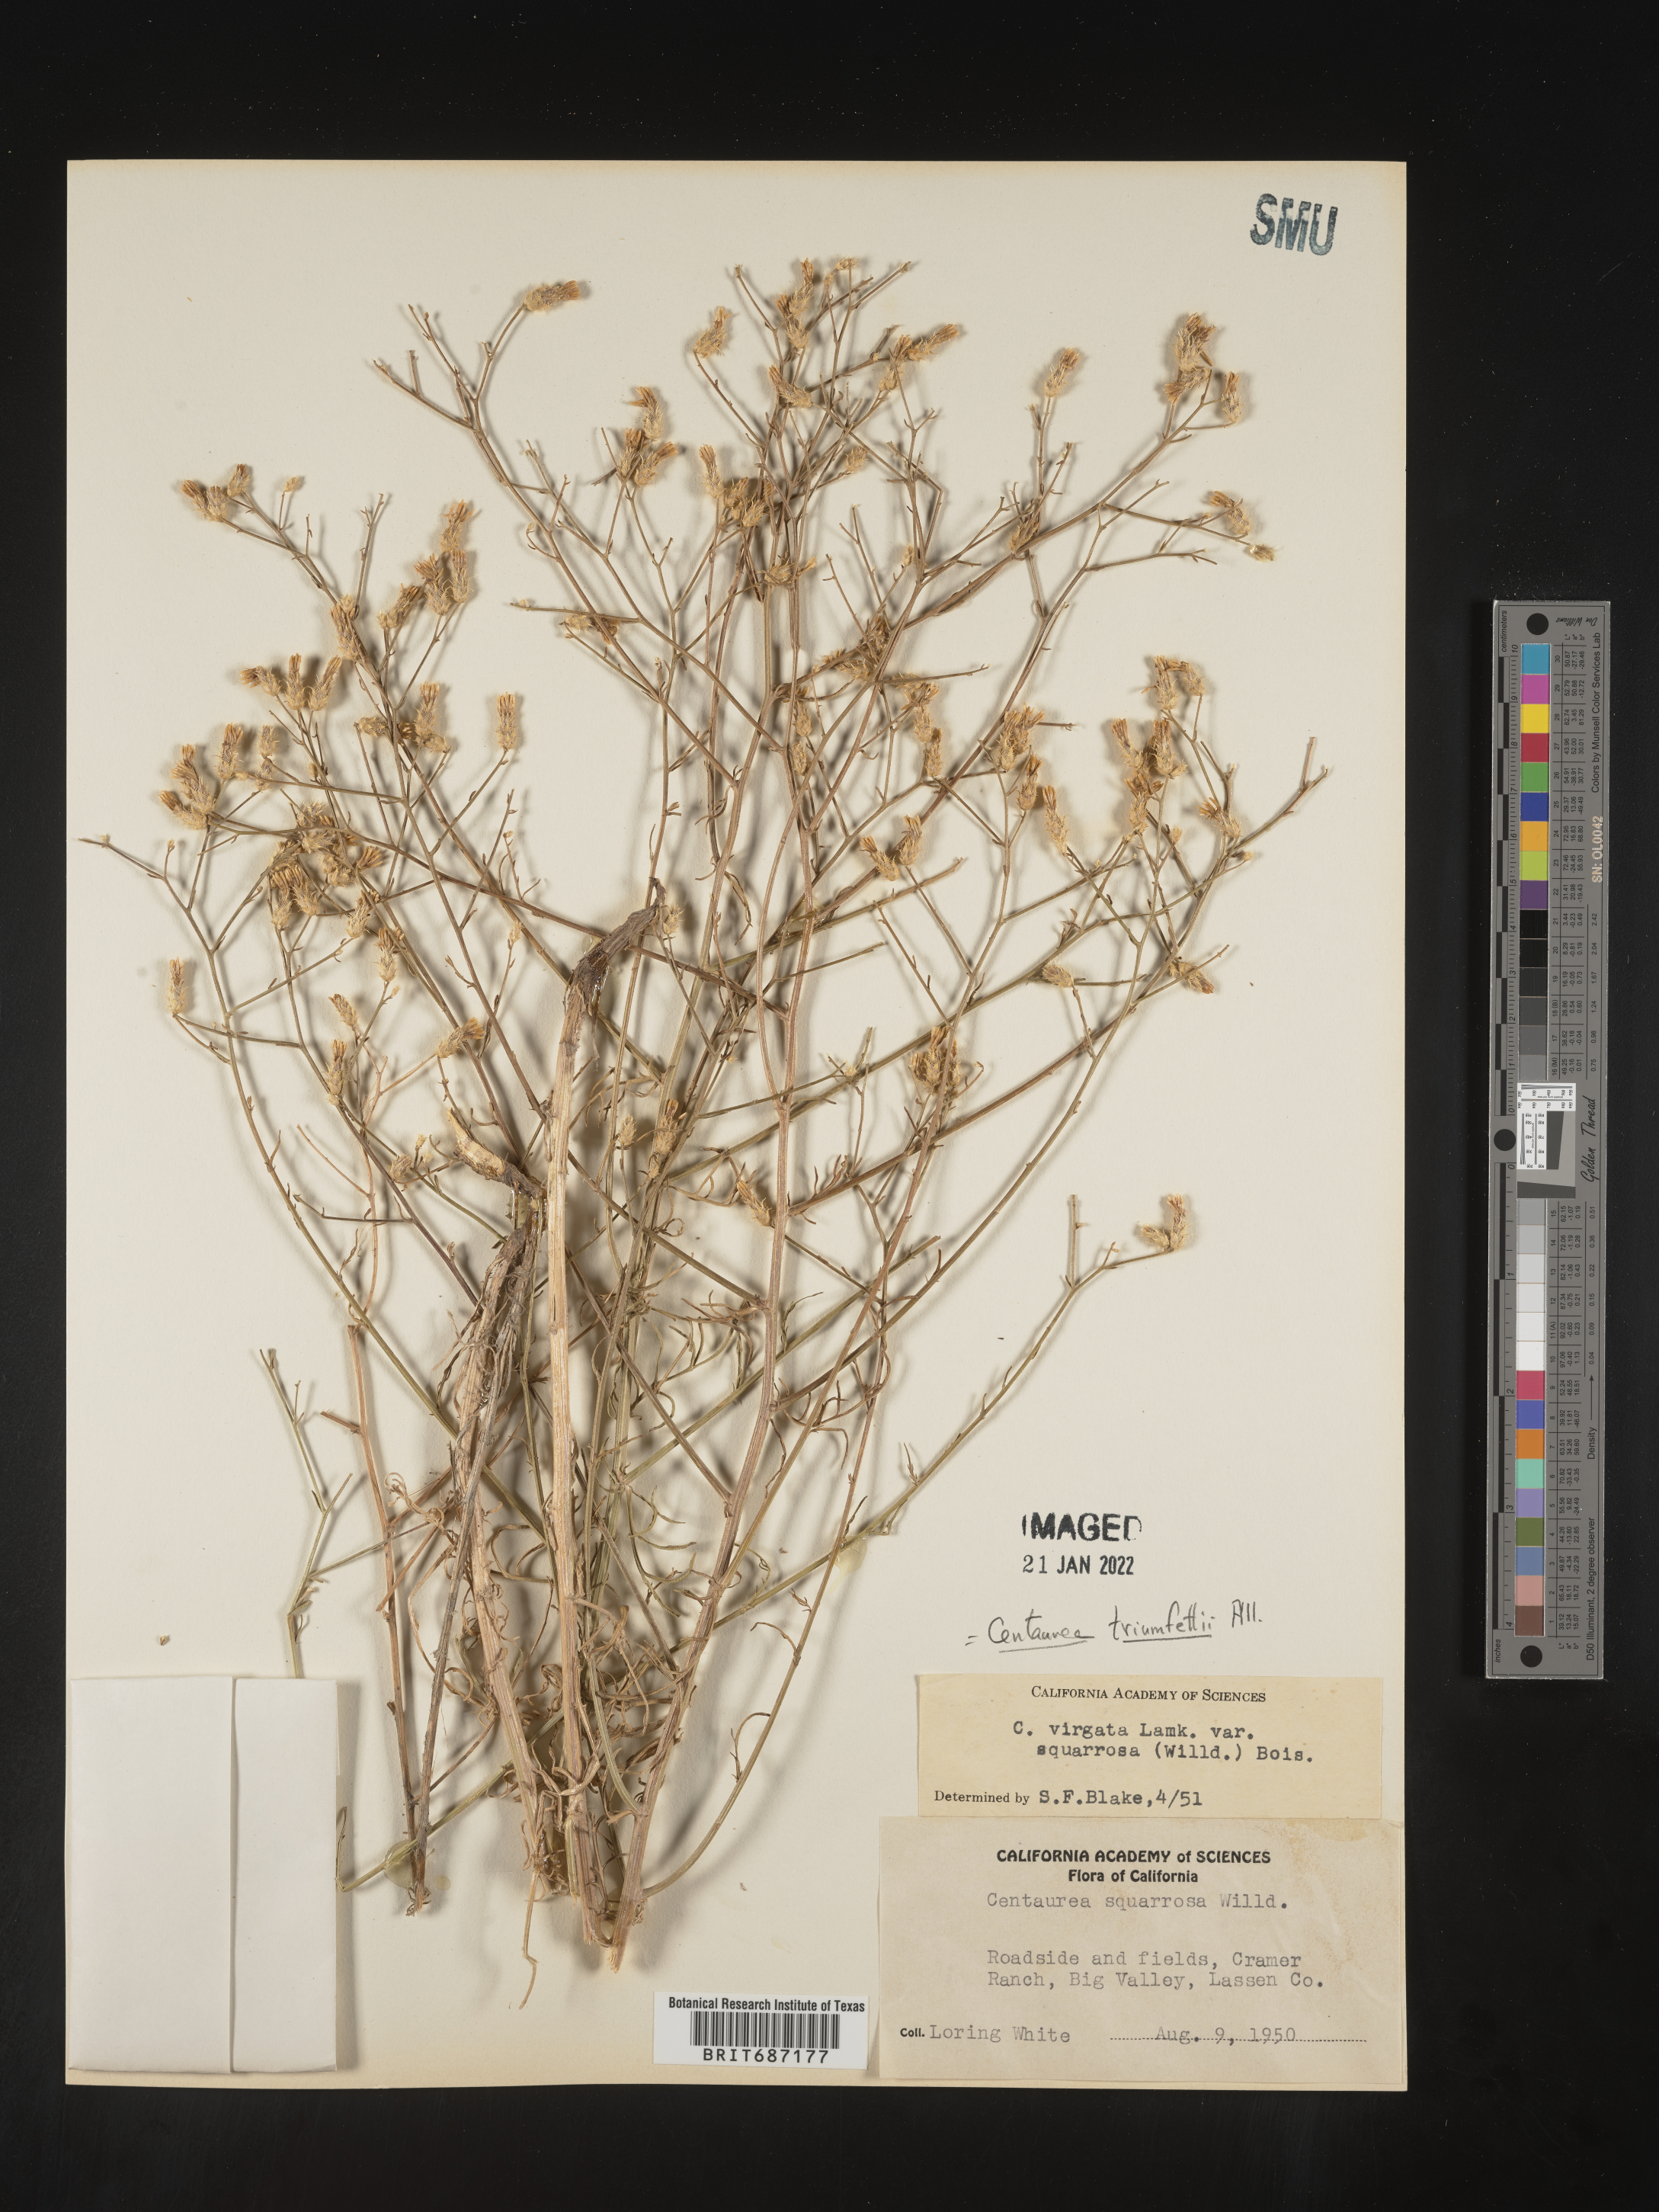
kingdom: Plantae
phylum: Tracheophyta
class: Magnoliopsida
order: Asterales
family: Asteraceae
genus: Centaurea
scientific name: Centaurea triumfettii
